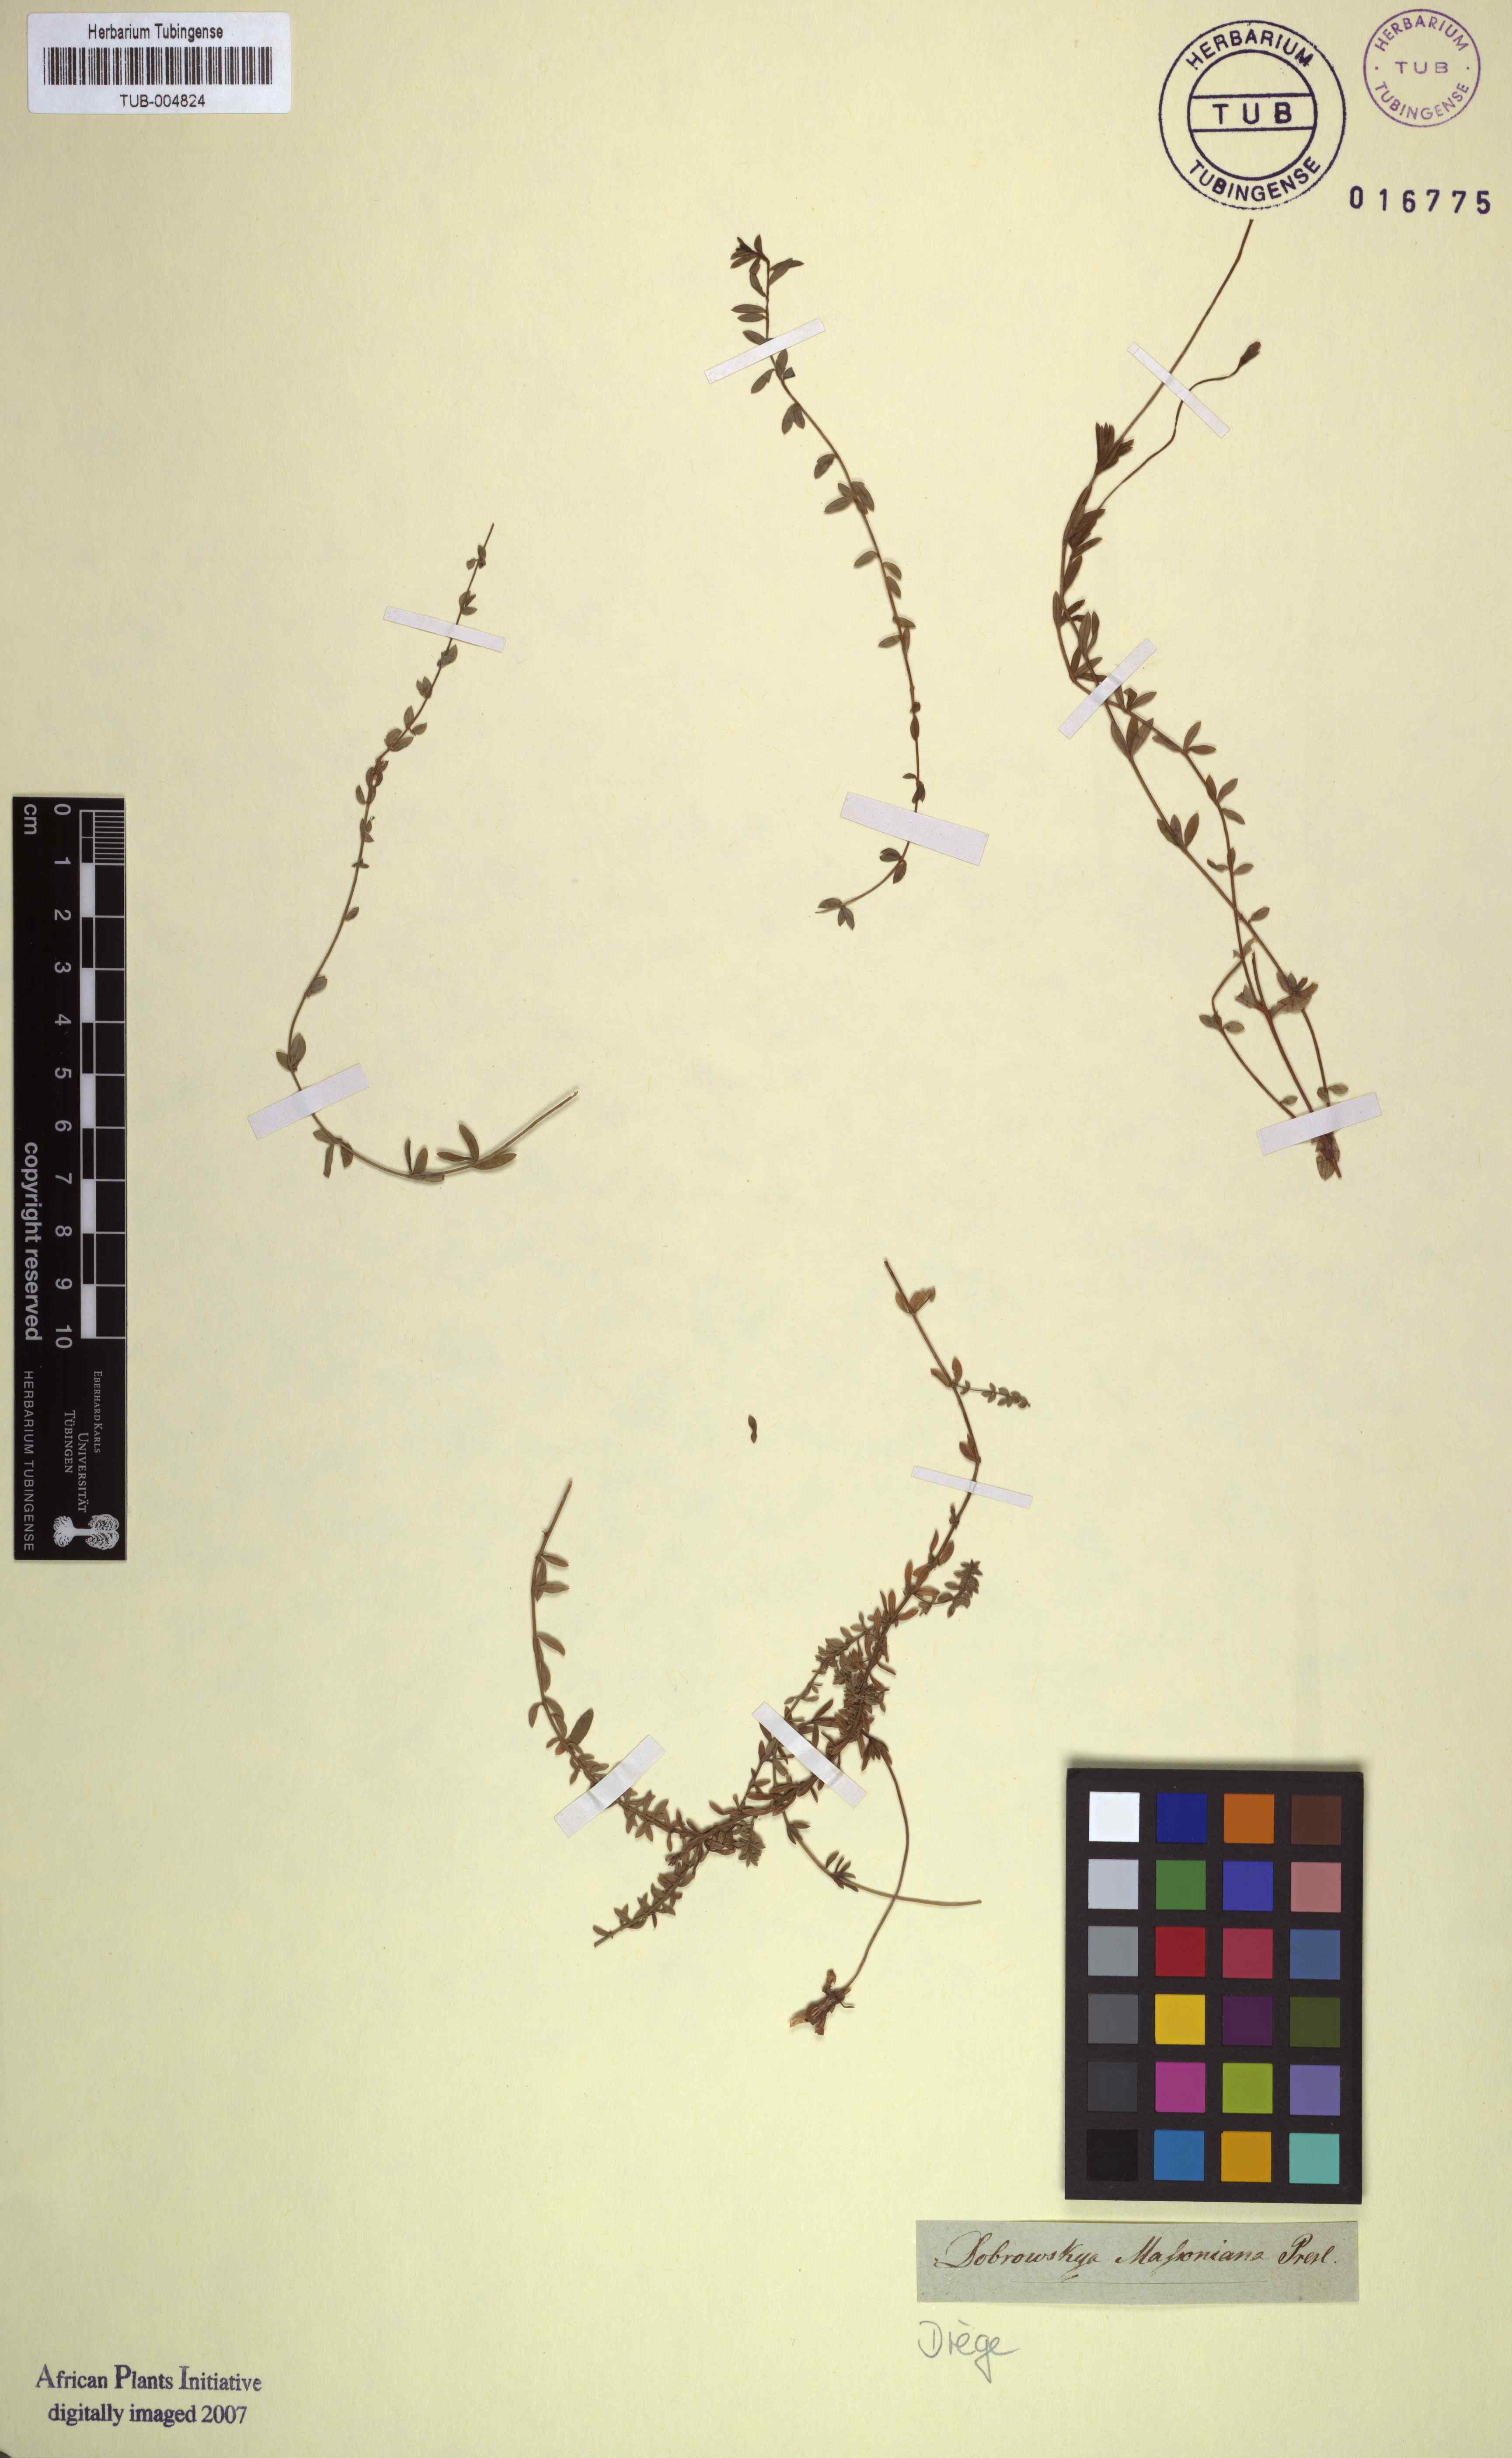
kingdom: Plantae
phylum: Tracheophyta
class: Magnoliopsida
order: Asterales
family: Campanulaceae
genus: Wahlenbergia
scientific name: Wahlenbergia parvifolia
